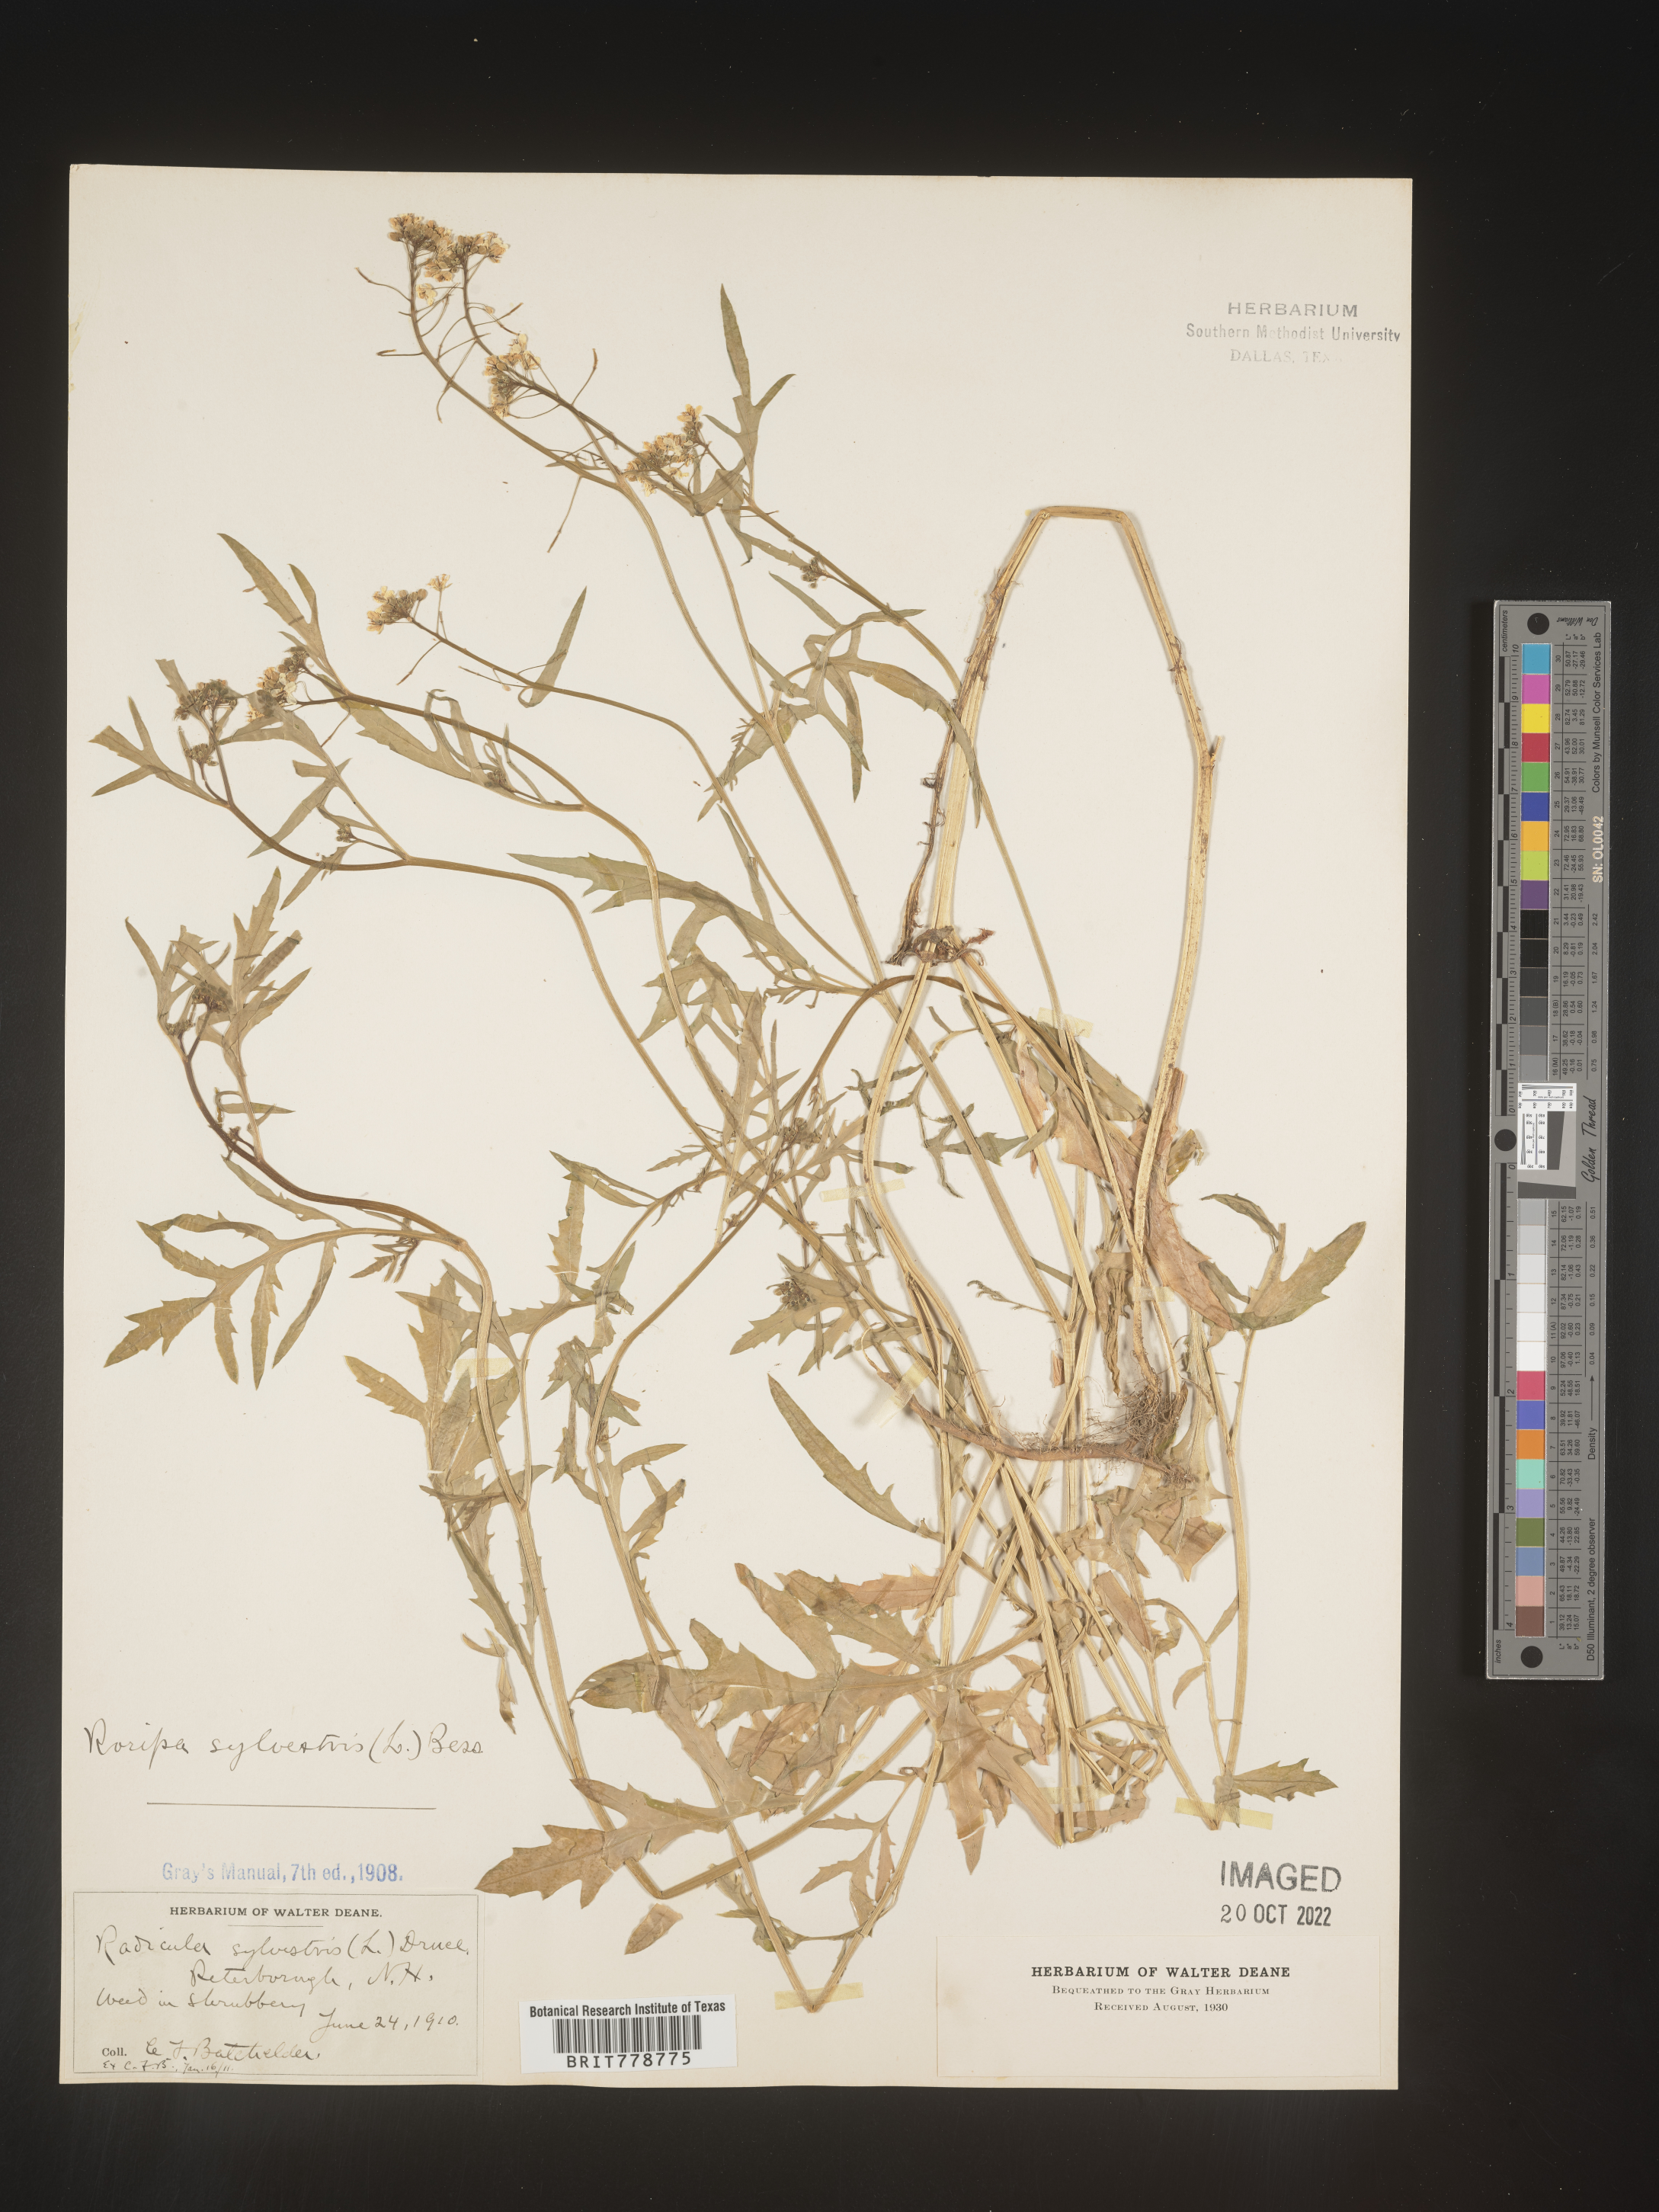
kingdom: Plantae
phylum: Tracheophyta
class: Magnoliopsida
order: Brassicales
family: Brassicaceae
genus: Rorippa
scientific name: Rorippa sylvestris
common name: Creeping yellowcress
